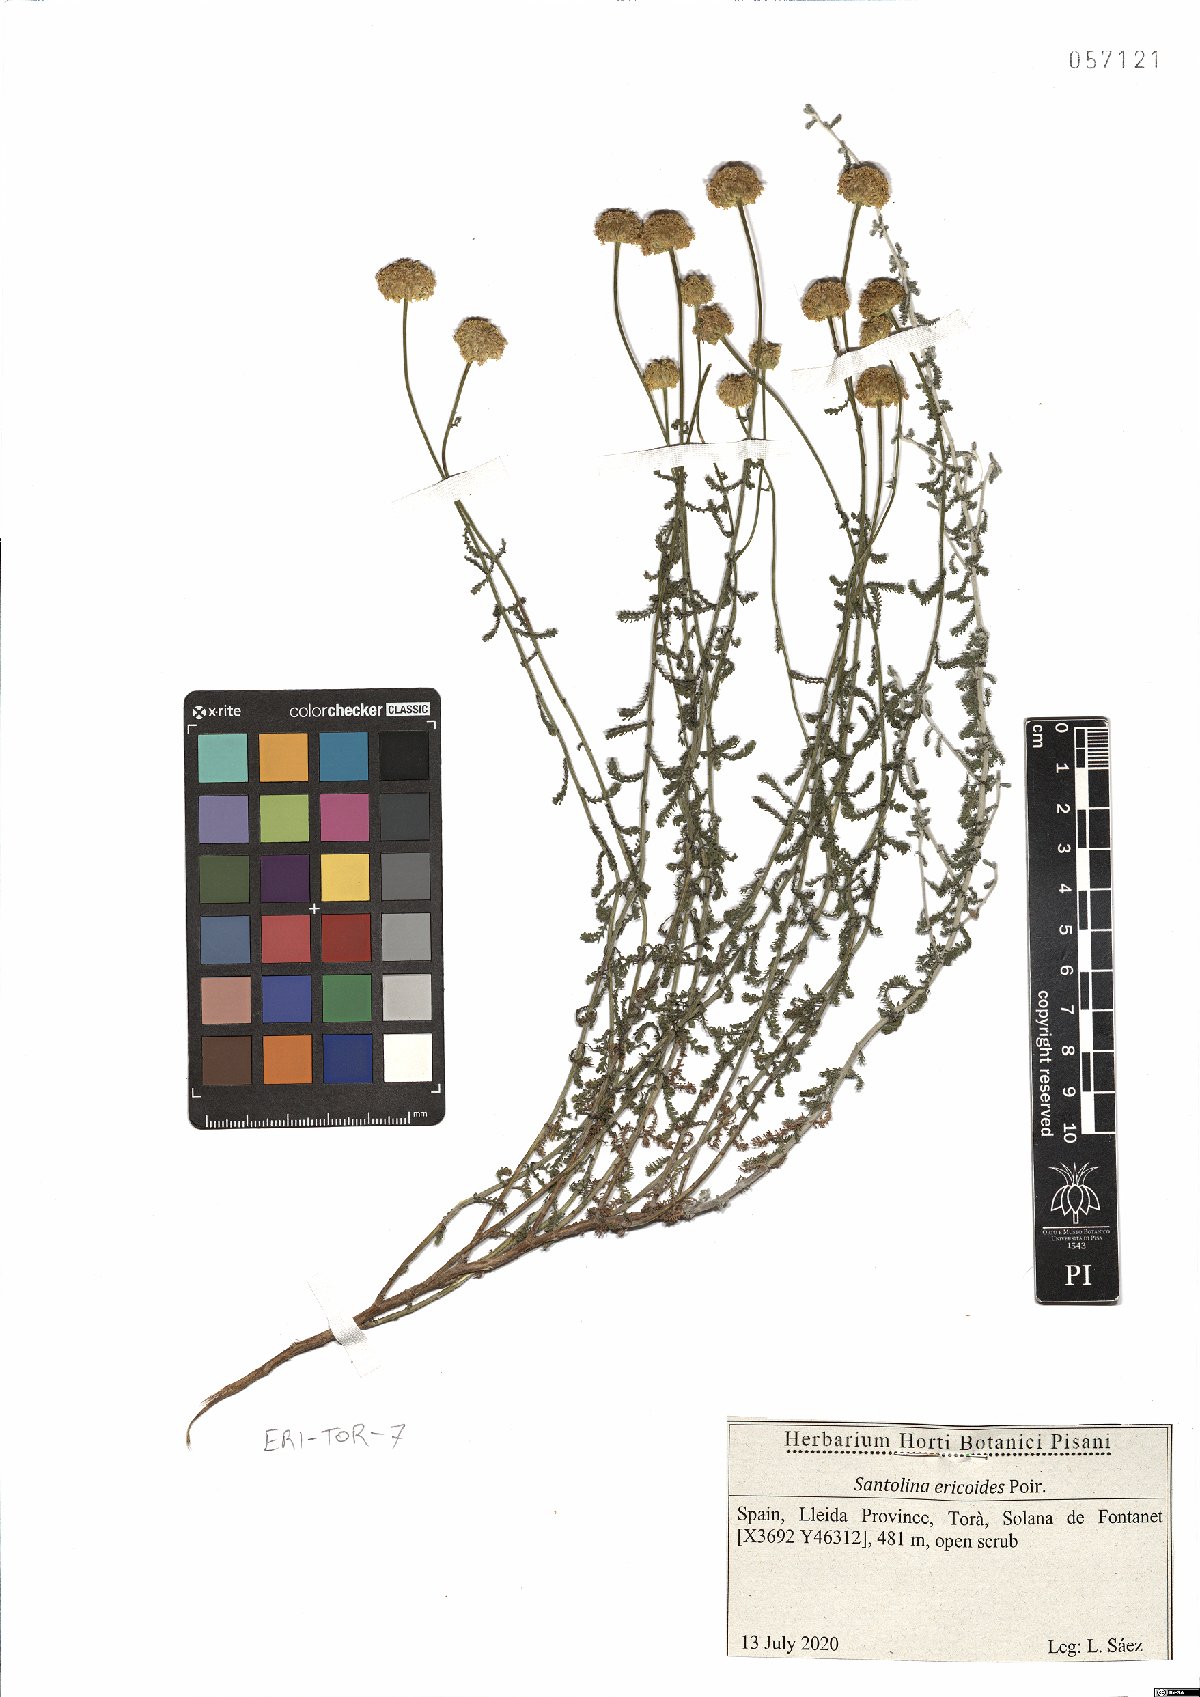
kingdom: Plantae
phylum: Tracheophyta
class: Magnoliopsida
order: Asterales
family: Asteraceae
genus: Santolina
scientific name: Santolina ericoides
